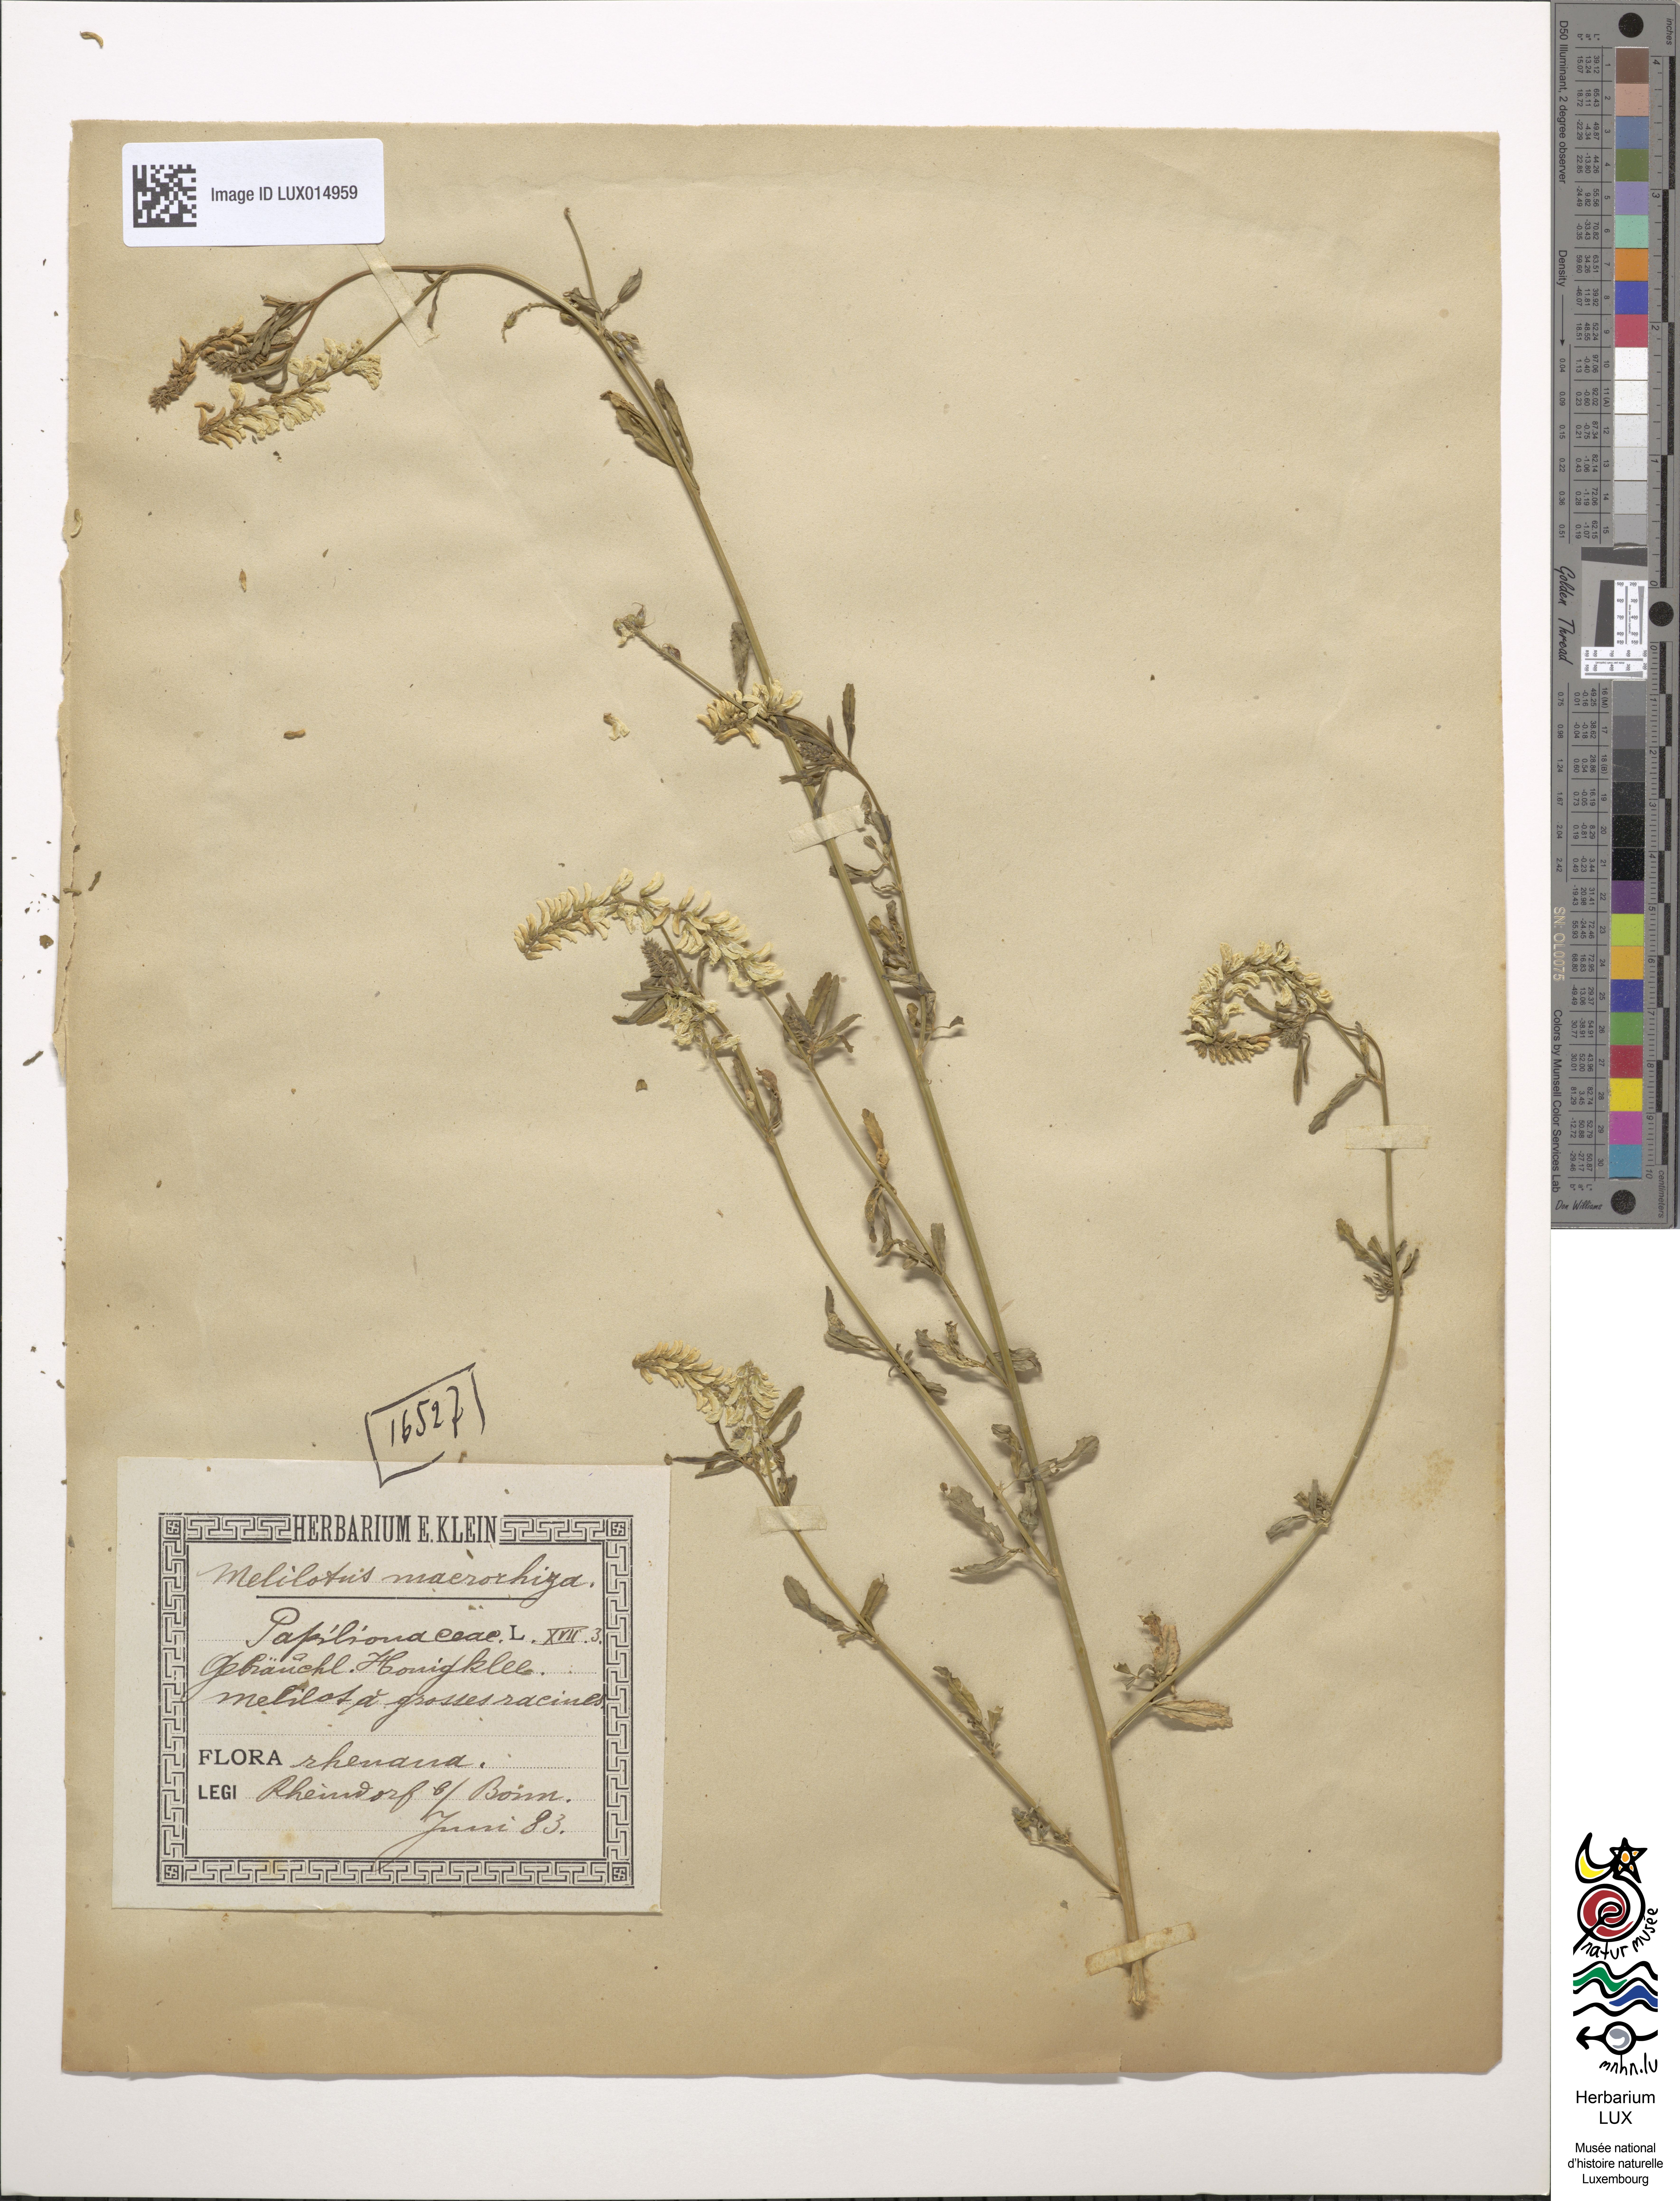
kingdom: Plantae
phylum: Tracheophyta
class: Magnoliopsida
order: Fabales
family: Fabaceae
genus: Melilotus
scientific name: Melilotus altissimus
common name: Tall melilot
